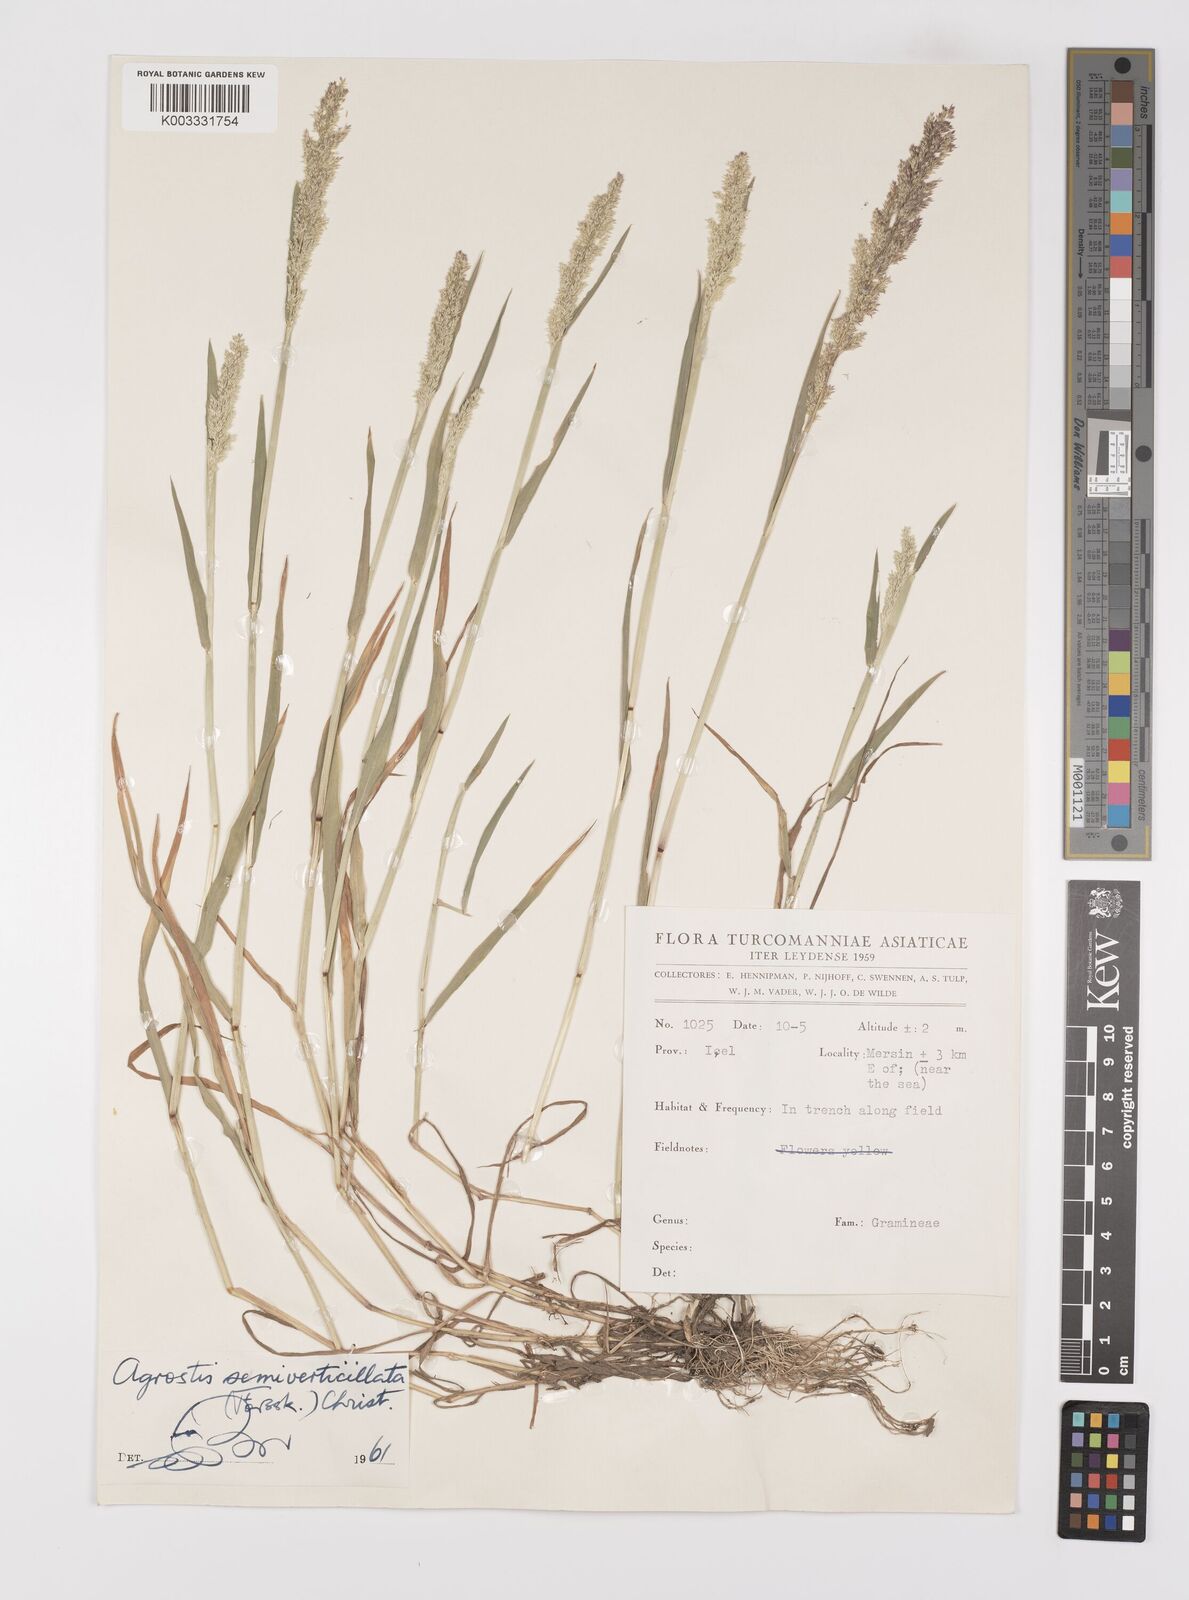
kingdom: Plantae
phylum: Tracheophyta
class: Liliopsida
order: Poales
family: Poaceae
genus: Polypogon
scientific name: Polypogon viridis
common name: Water bent
